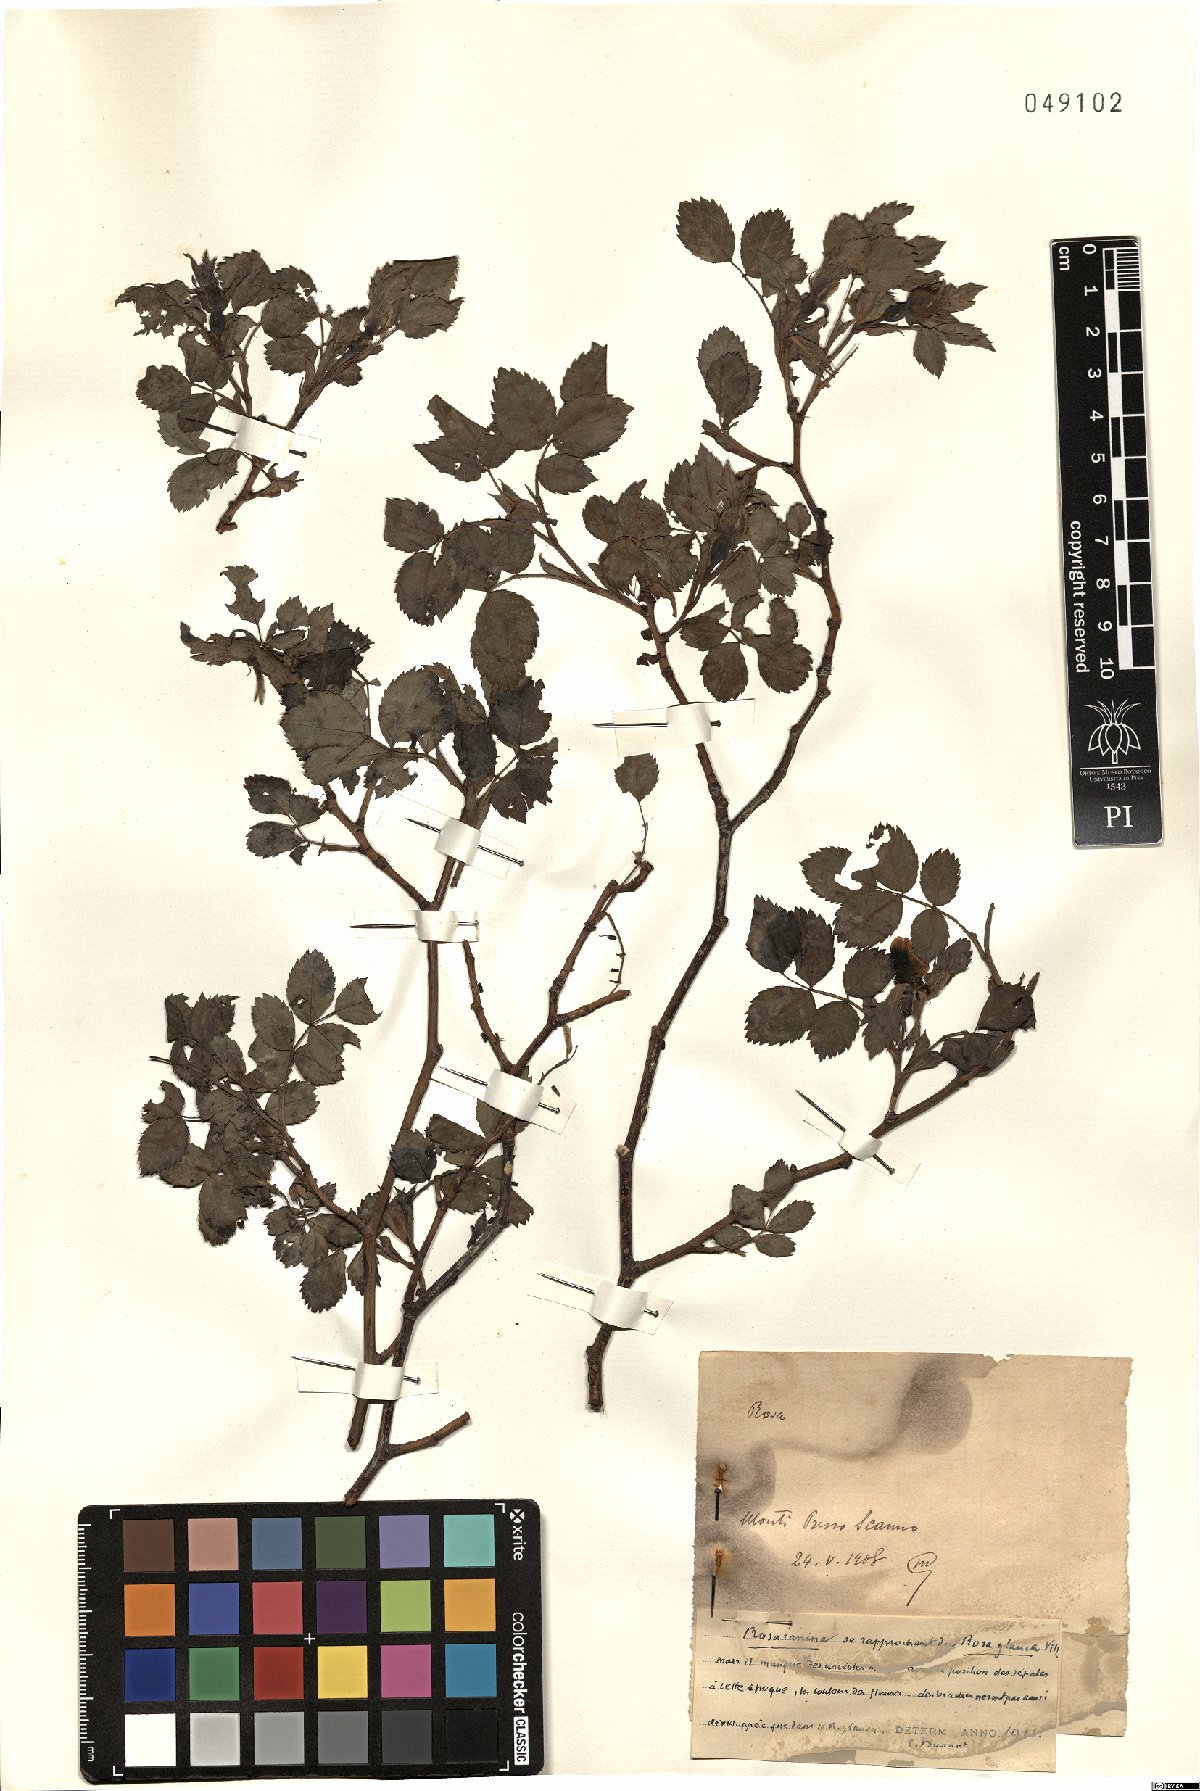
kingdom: Plantae
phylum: Tracheophyta
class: Magnoliopsida
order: Rosales
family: Rosaceae
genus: Rosa
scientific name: Rosa canina
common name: Dog rose
